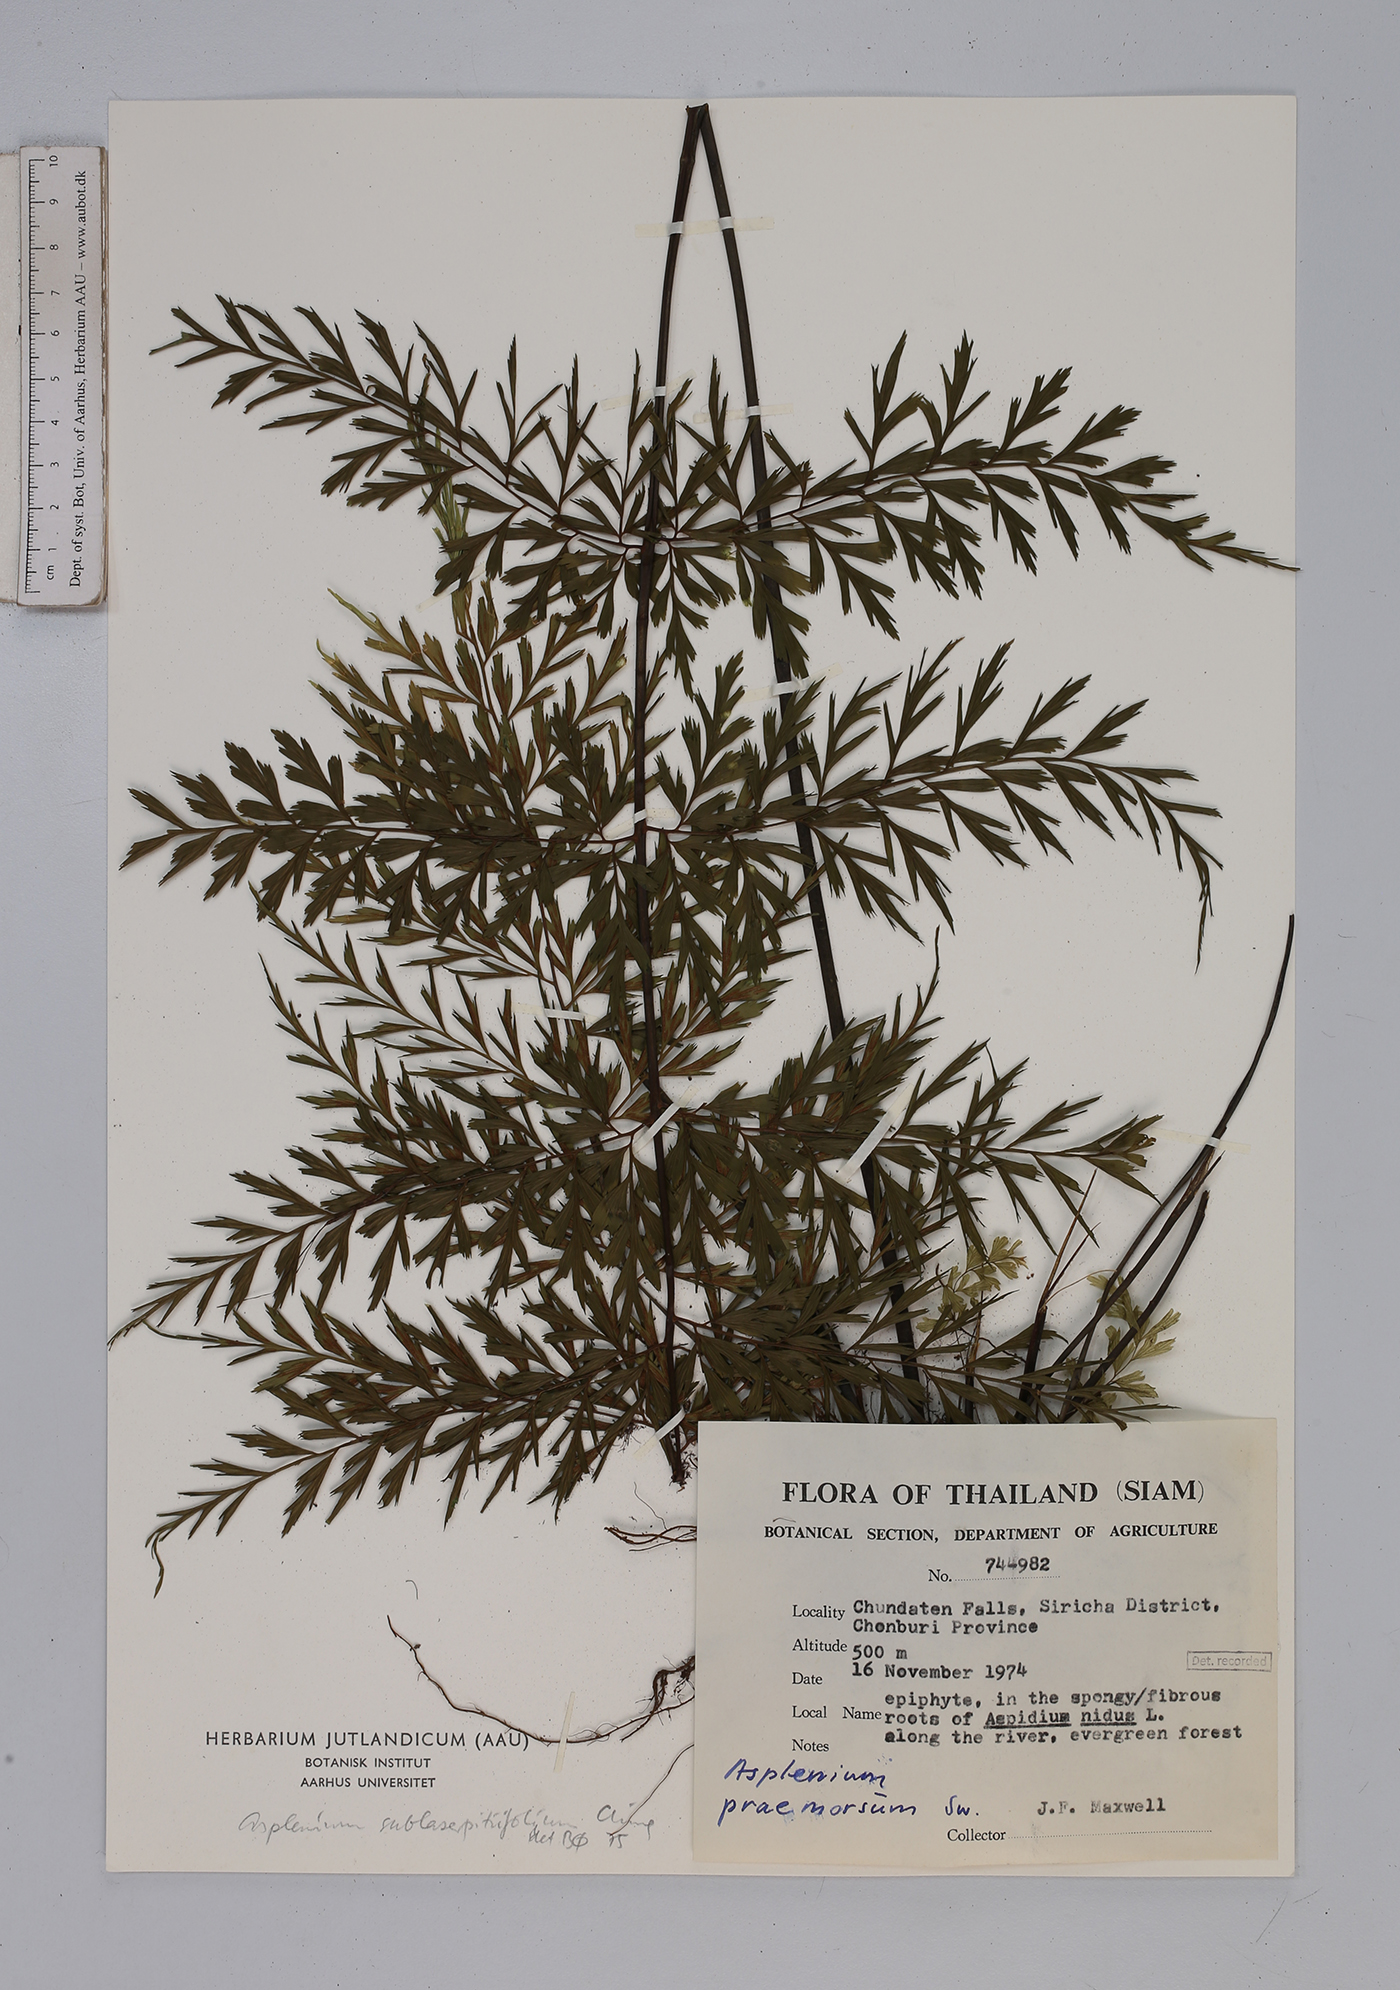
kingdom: Plantae
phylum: Tracheophyta
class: Polypodiopsida
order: Polypodiales
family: Aspleniaceae
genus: Asplenium
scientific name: Asplenium sublaserpitiifolium
